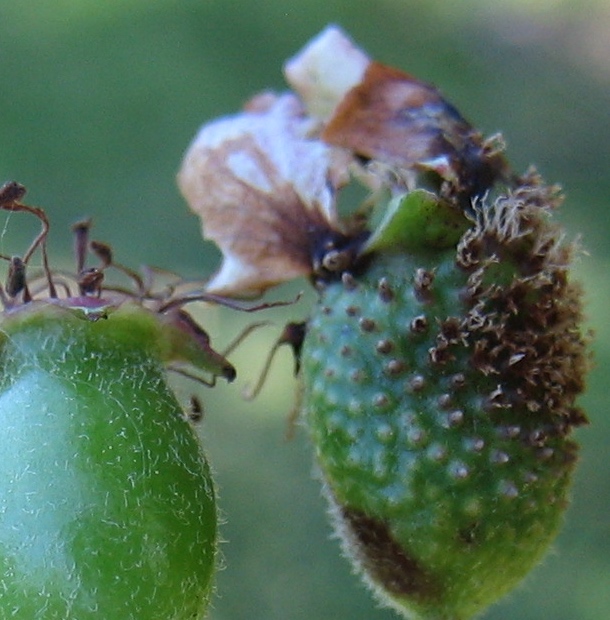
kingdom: Fungi
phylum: Basidiomycota
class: Pucciniomycetes
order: Pucciniales
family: Gymnosporangiaceae
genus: Gymnosporangium
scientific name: Gymnosporangium
